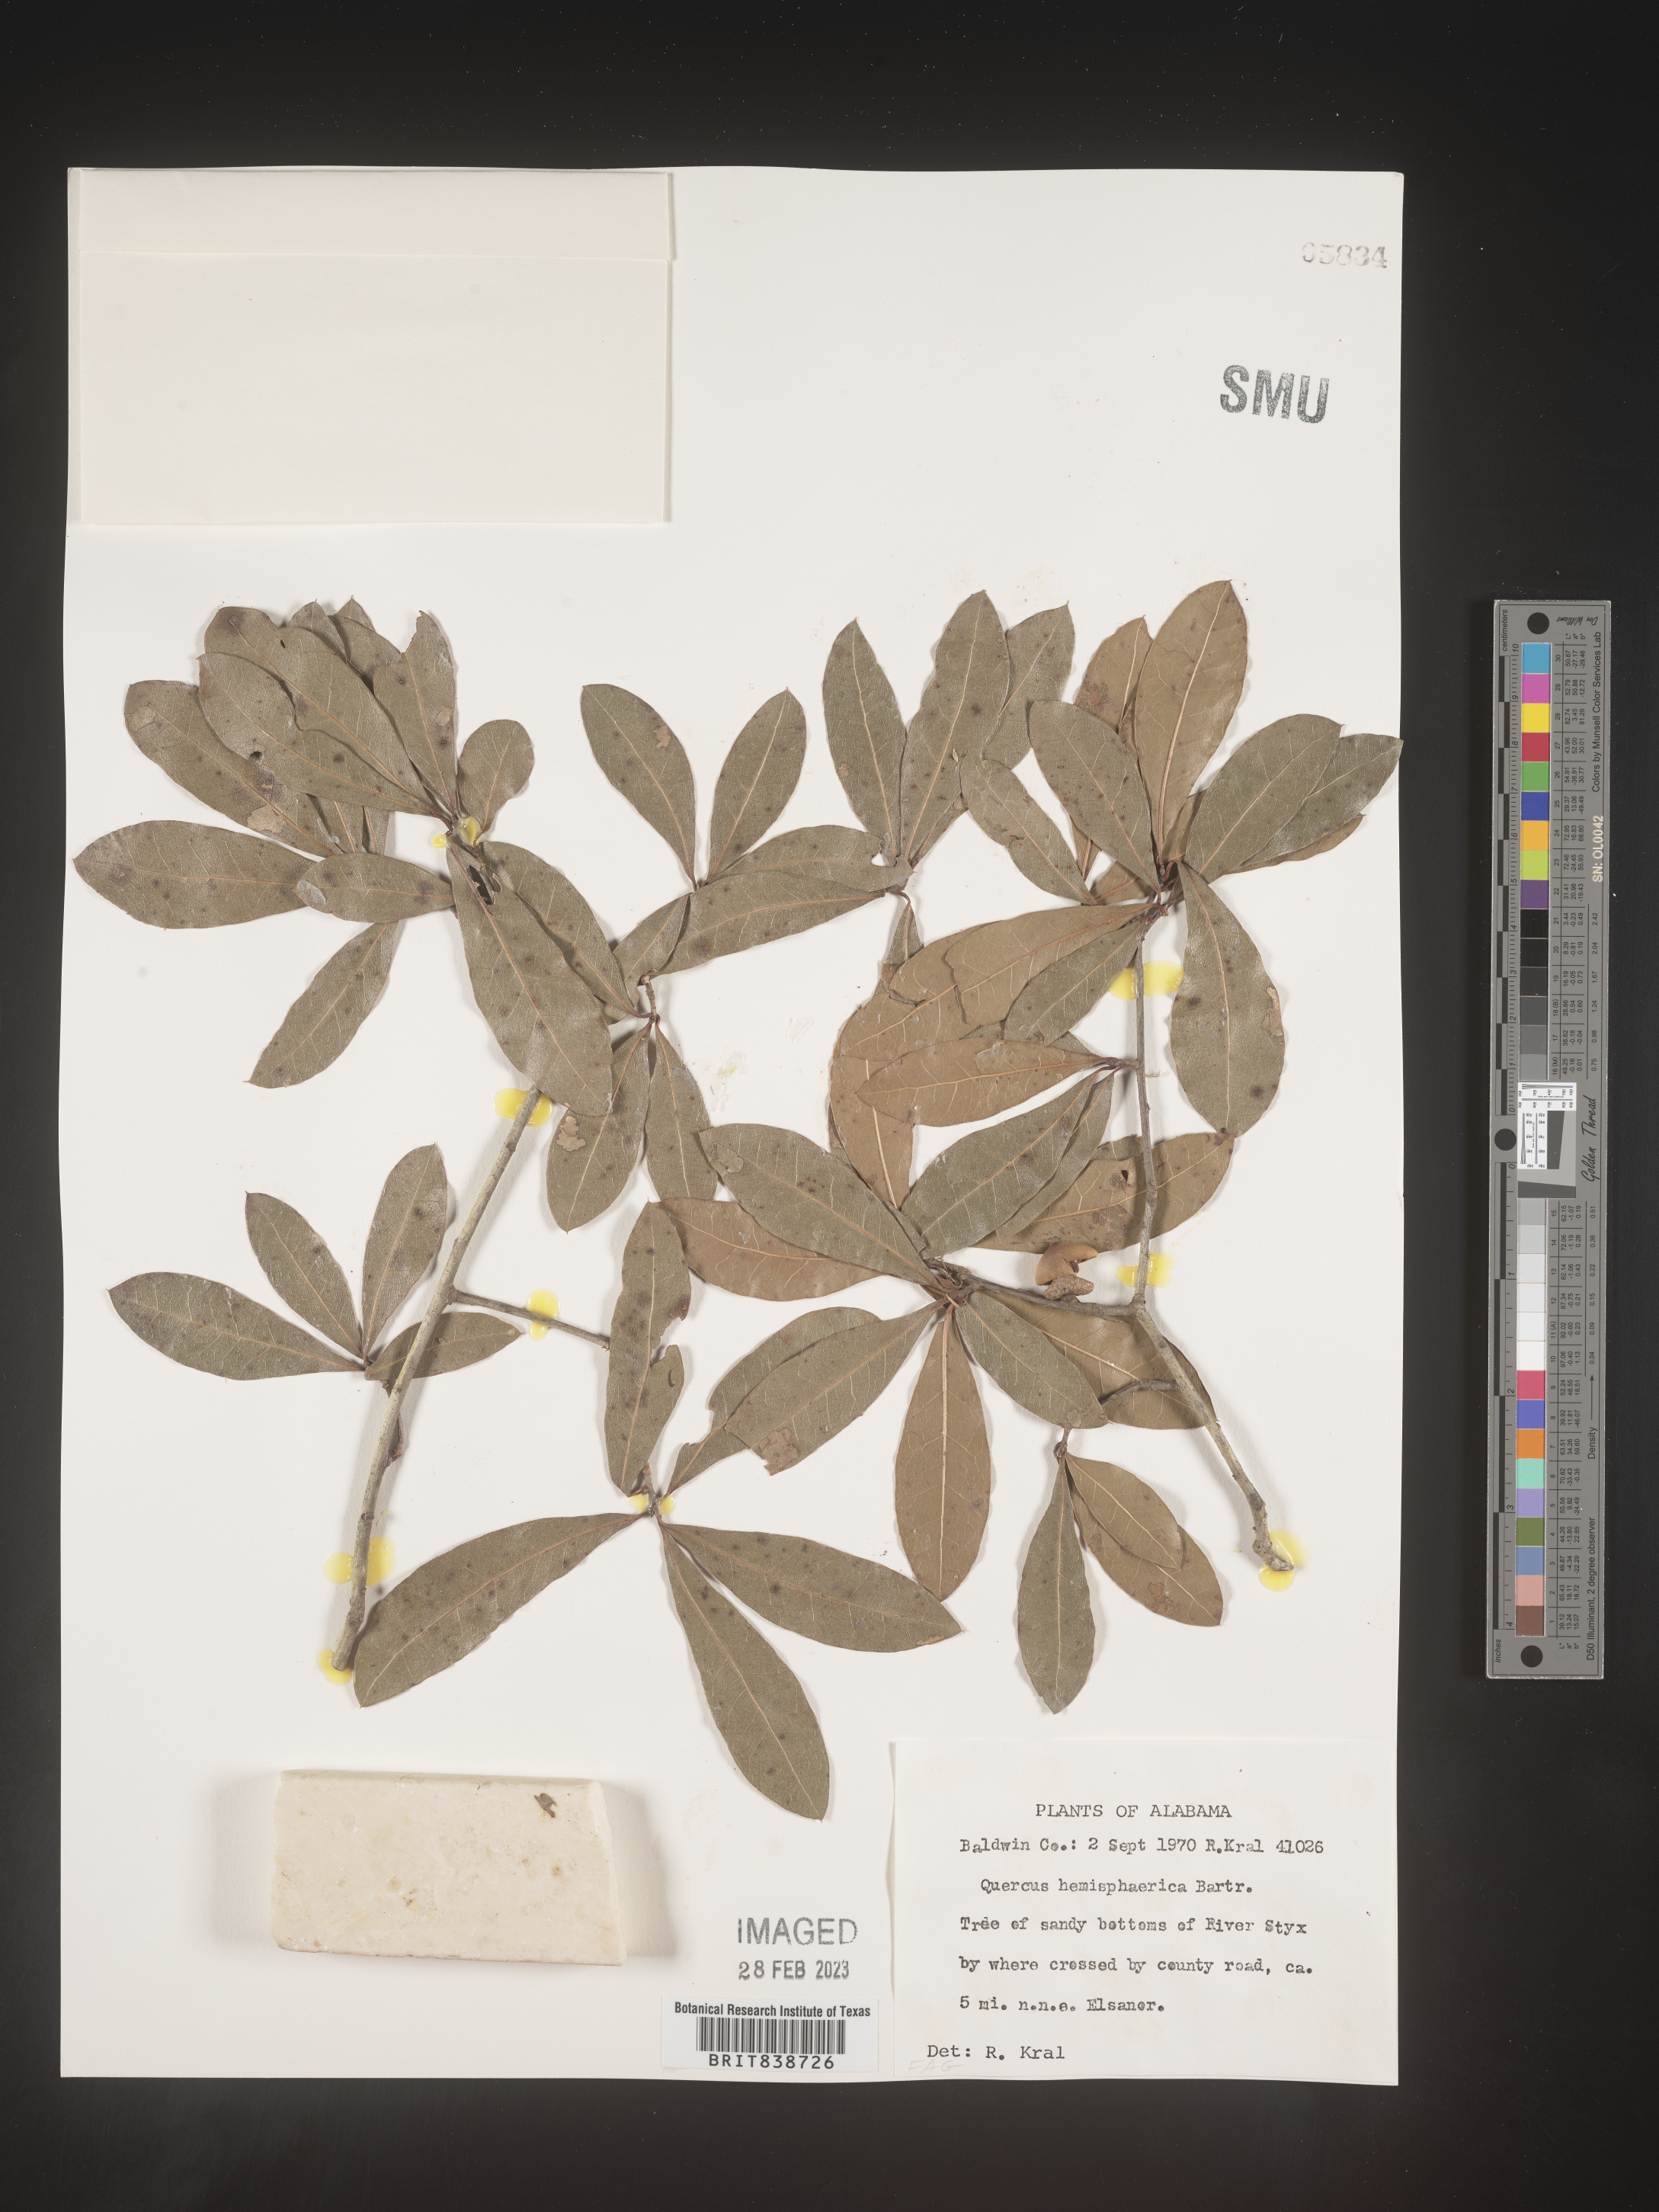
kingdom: Plantae
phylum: Tracheophyta
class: Magnoliopsida
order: Fagales
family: Fagaceae
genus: Quercus
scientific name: Quercus
